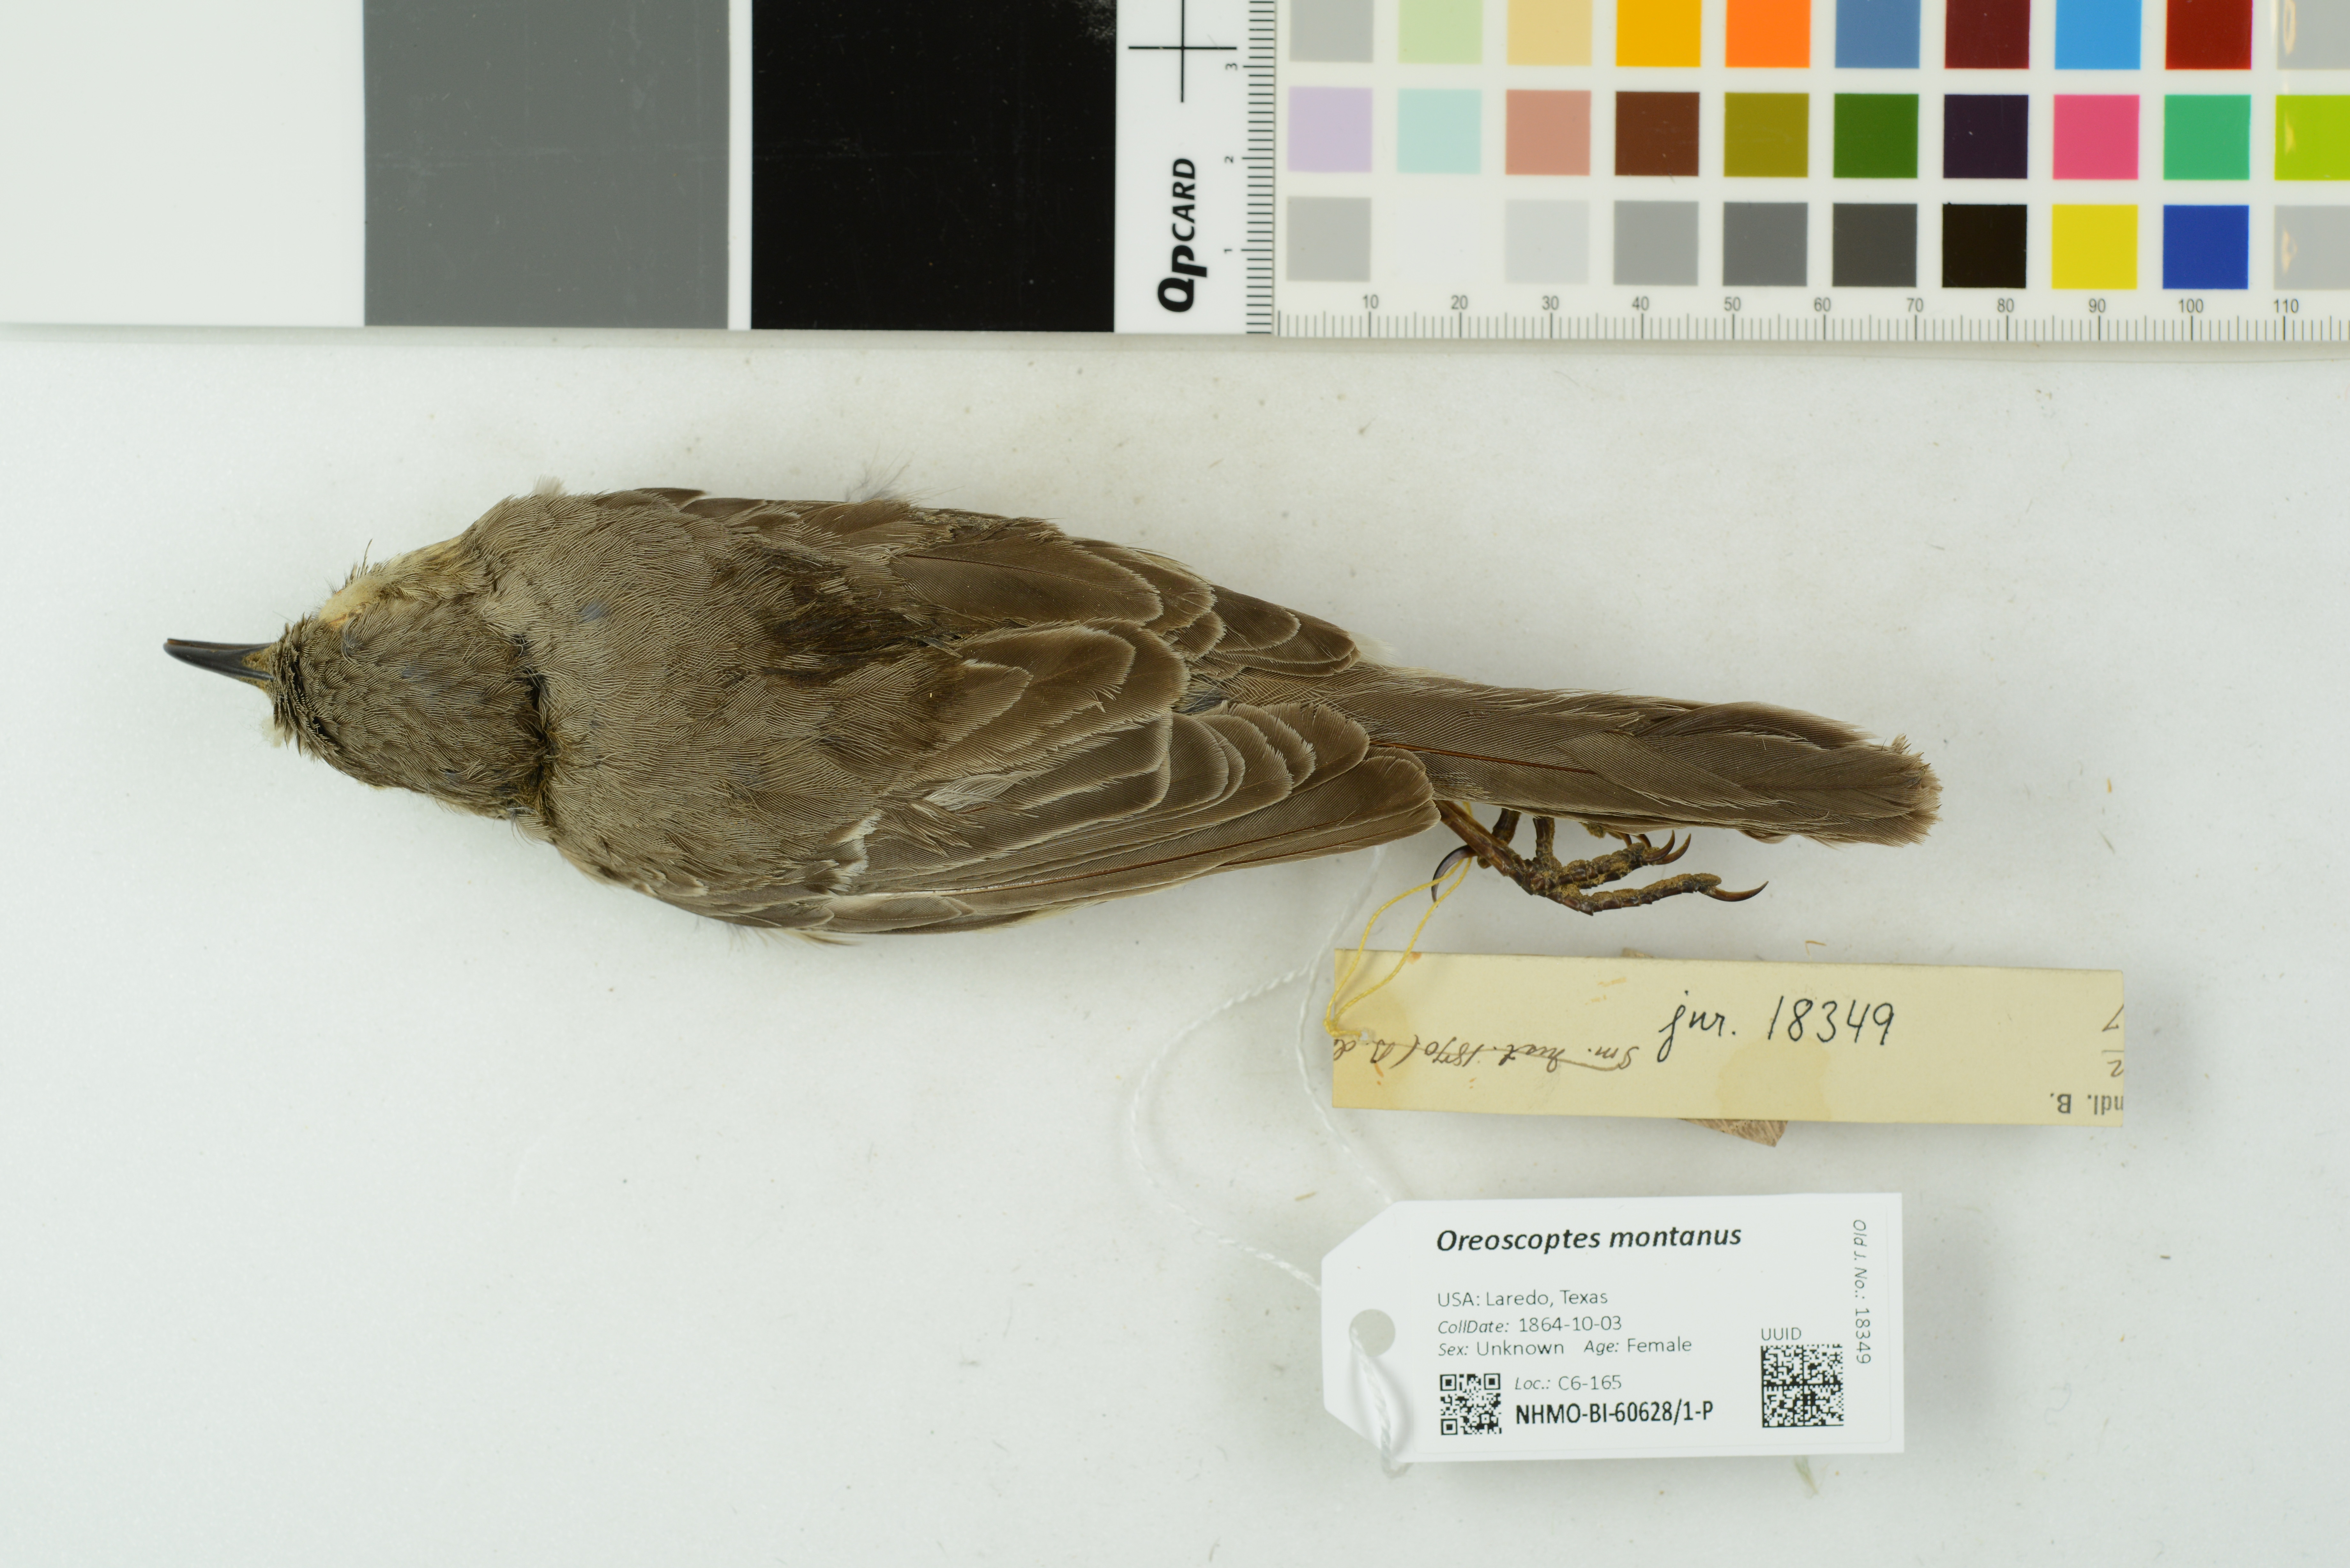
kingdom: Animalia
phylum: Chordata
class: Aves
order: Passeriformes
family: Mimidae
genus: Oreoscoptes
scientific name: Oreoscoptes montanus
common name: Sage thrasher
